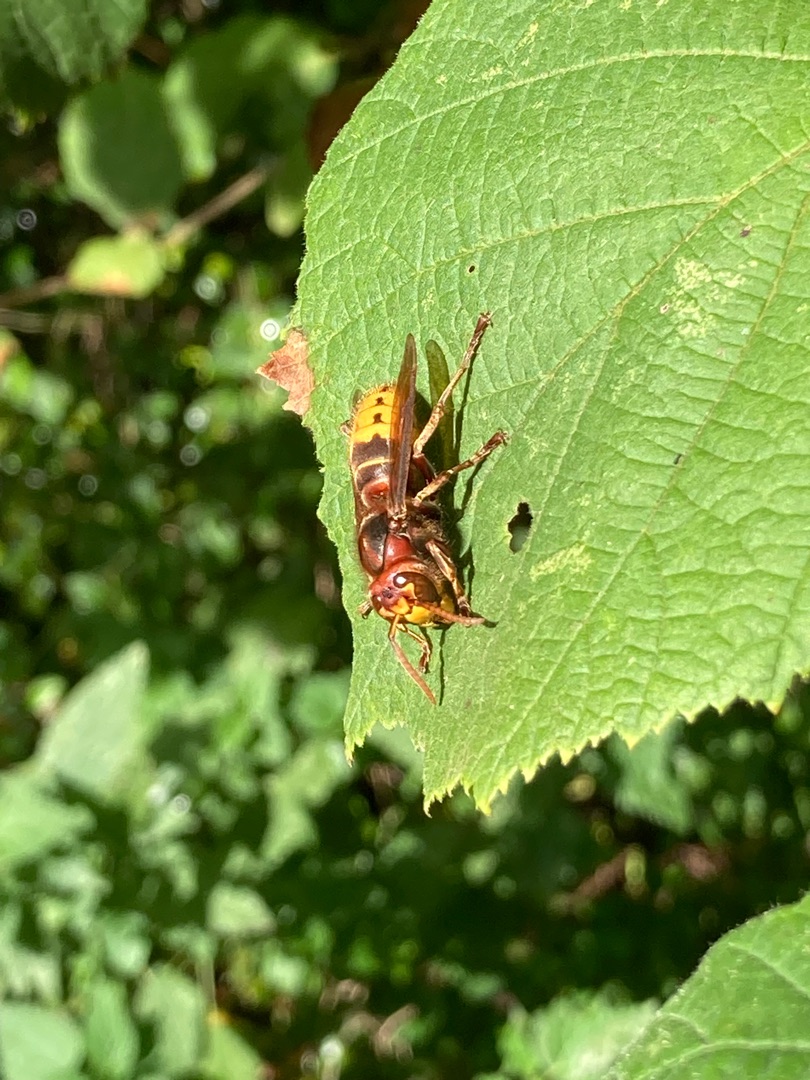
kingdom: Animalia
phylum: Arthropoda
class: Insecta
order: Hymenoptera
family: Vespidae
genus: Vespa
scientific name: Vespa crabro
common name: Stor gedehams
